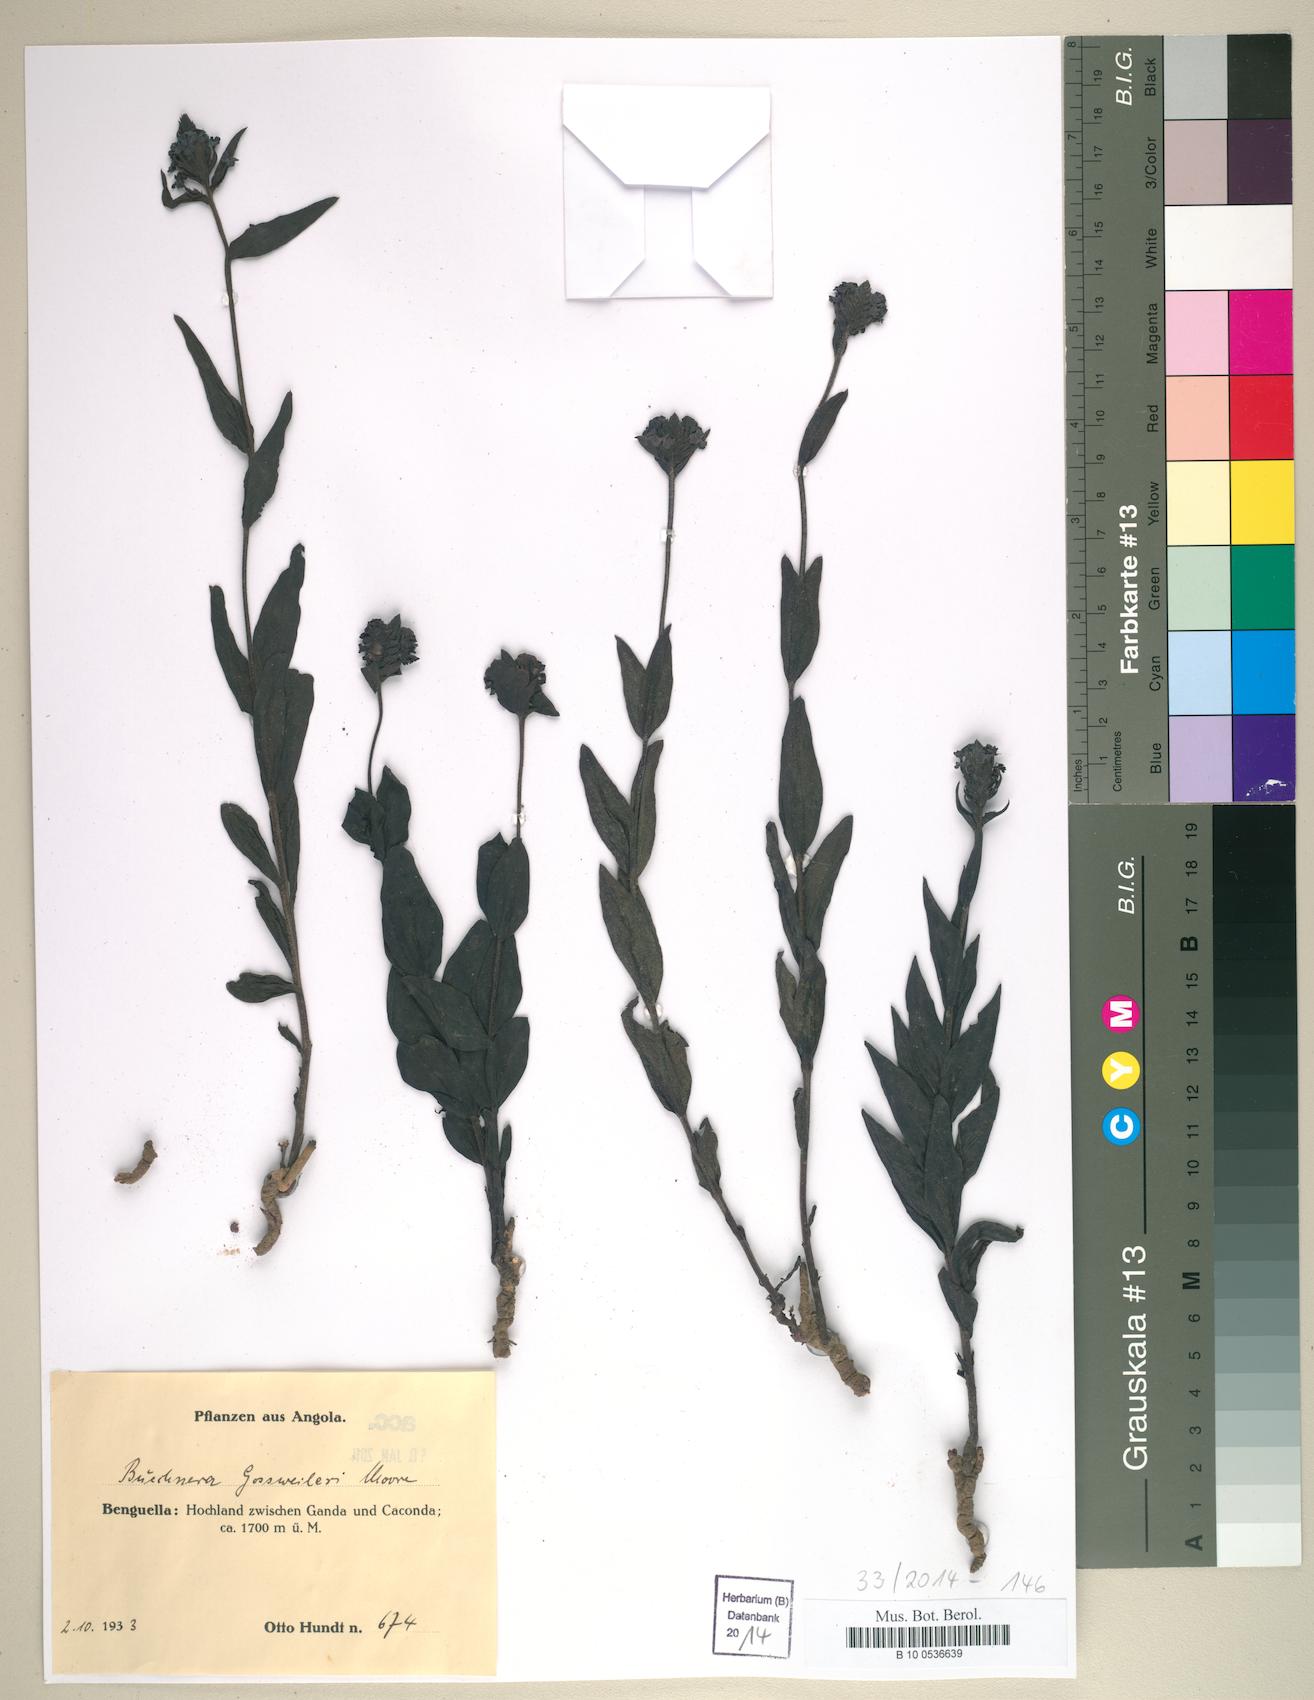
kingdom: Plantae
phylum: Tracheophyta
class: Magnoliopsida
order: Lamiales
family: Orobanchaceae
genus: Buchnera
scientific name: Buchnera gossweileri
